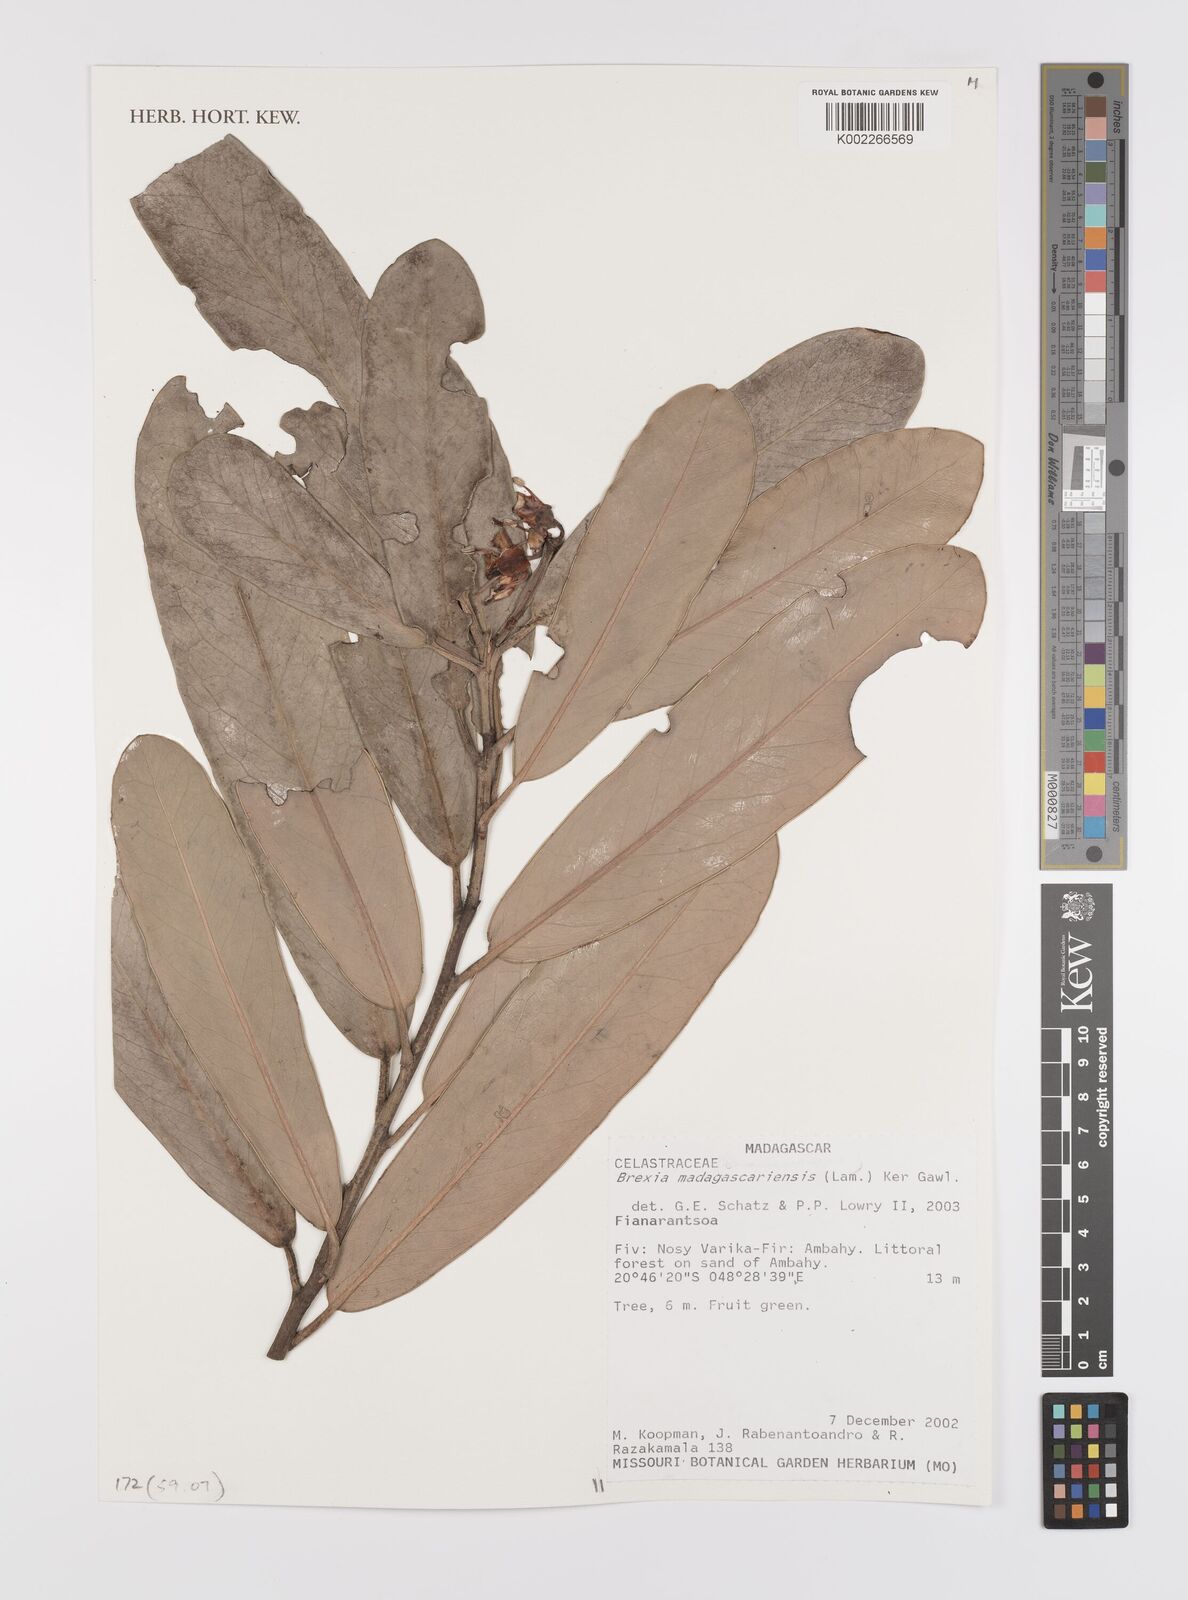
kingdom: Plantae
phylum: Tracheophyta
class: Magnoliopsida
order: Celastrales
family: Celastraceae
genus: Brexia
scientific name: Brexia madagascariensis
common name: Brexia
